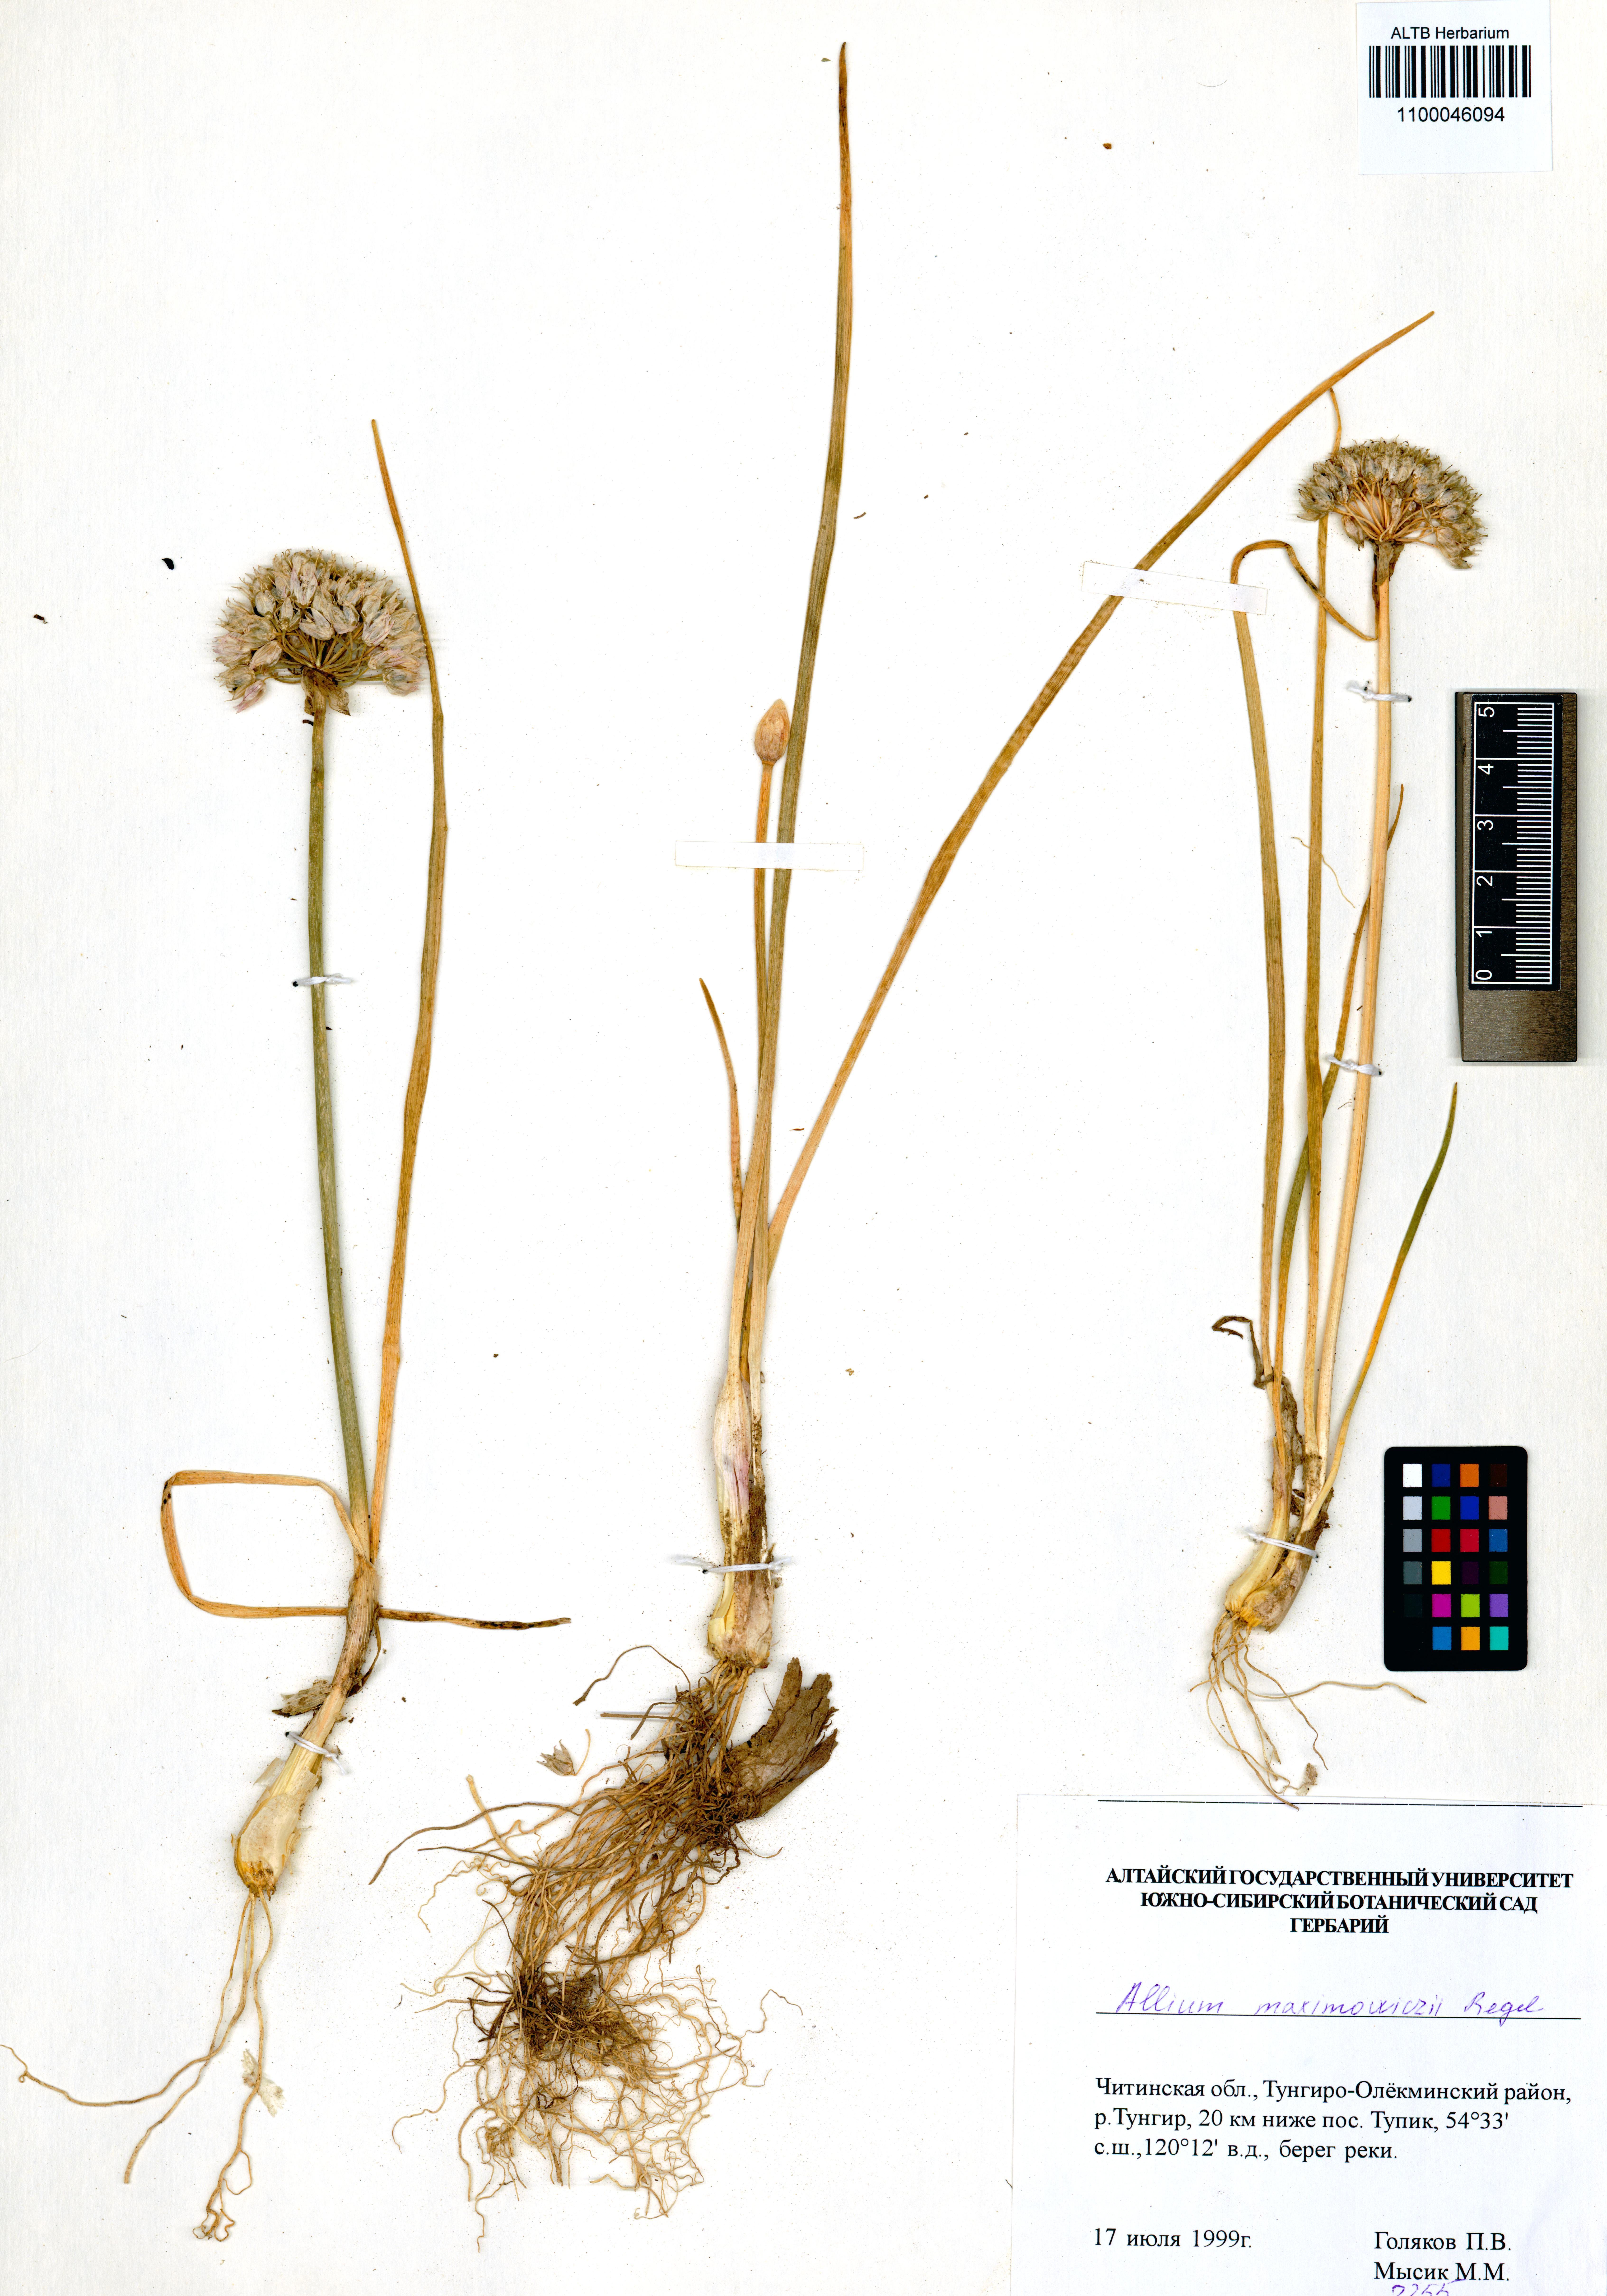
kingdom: Plantae
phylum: Tracheophyta
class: Liliopsida
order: Asparagales
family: Amaryllidaceae
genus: Allium
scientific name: Allium maximowiczii
